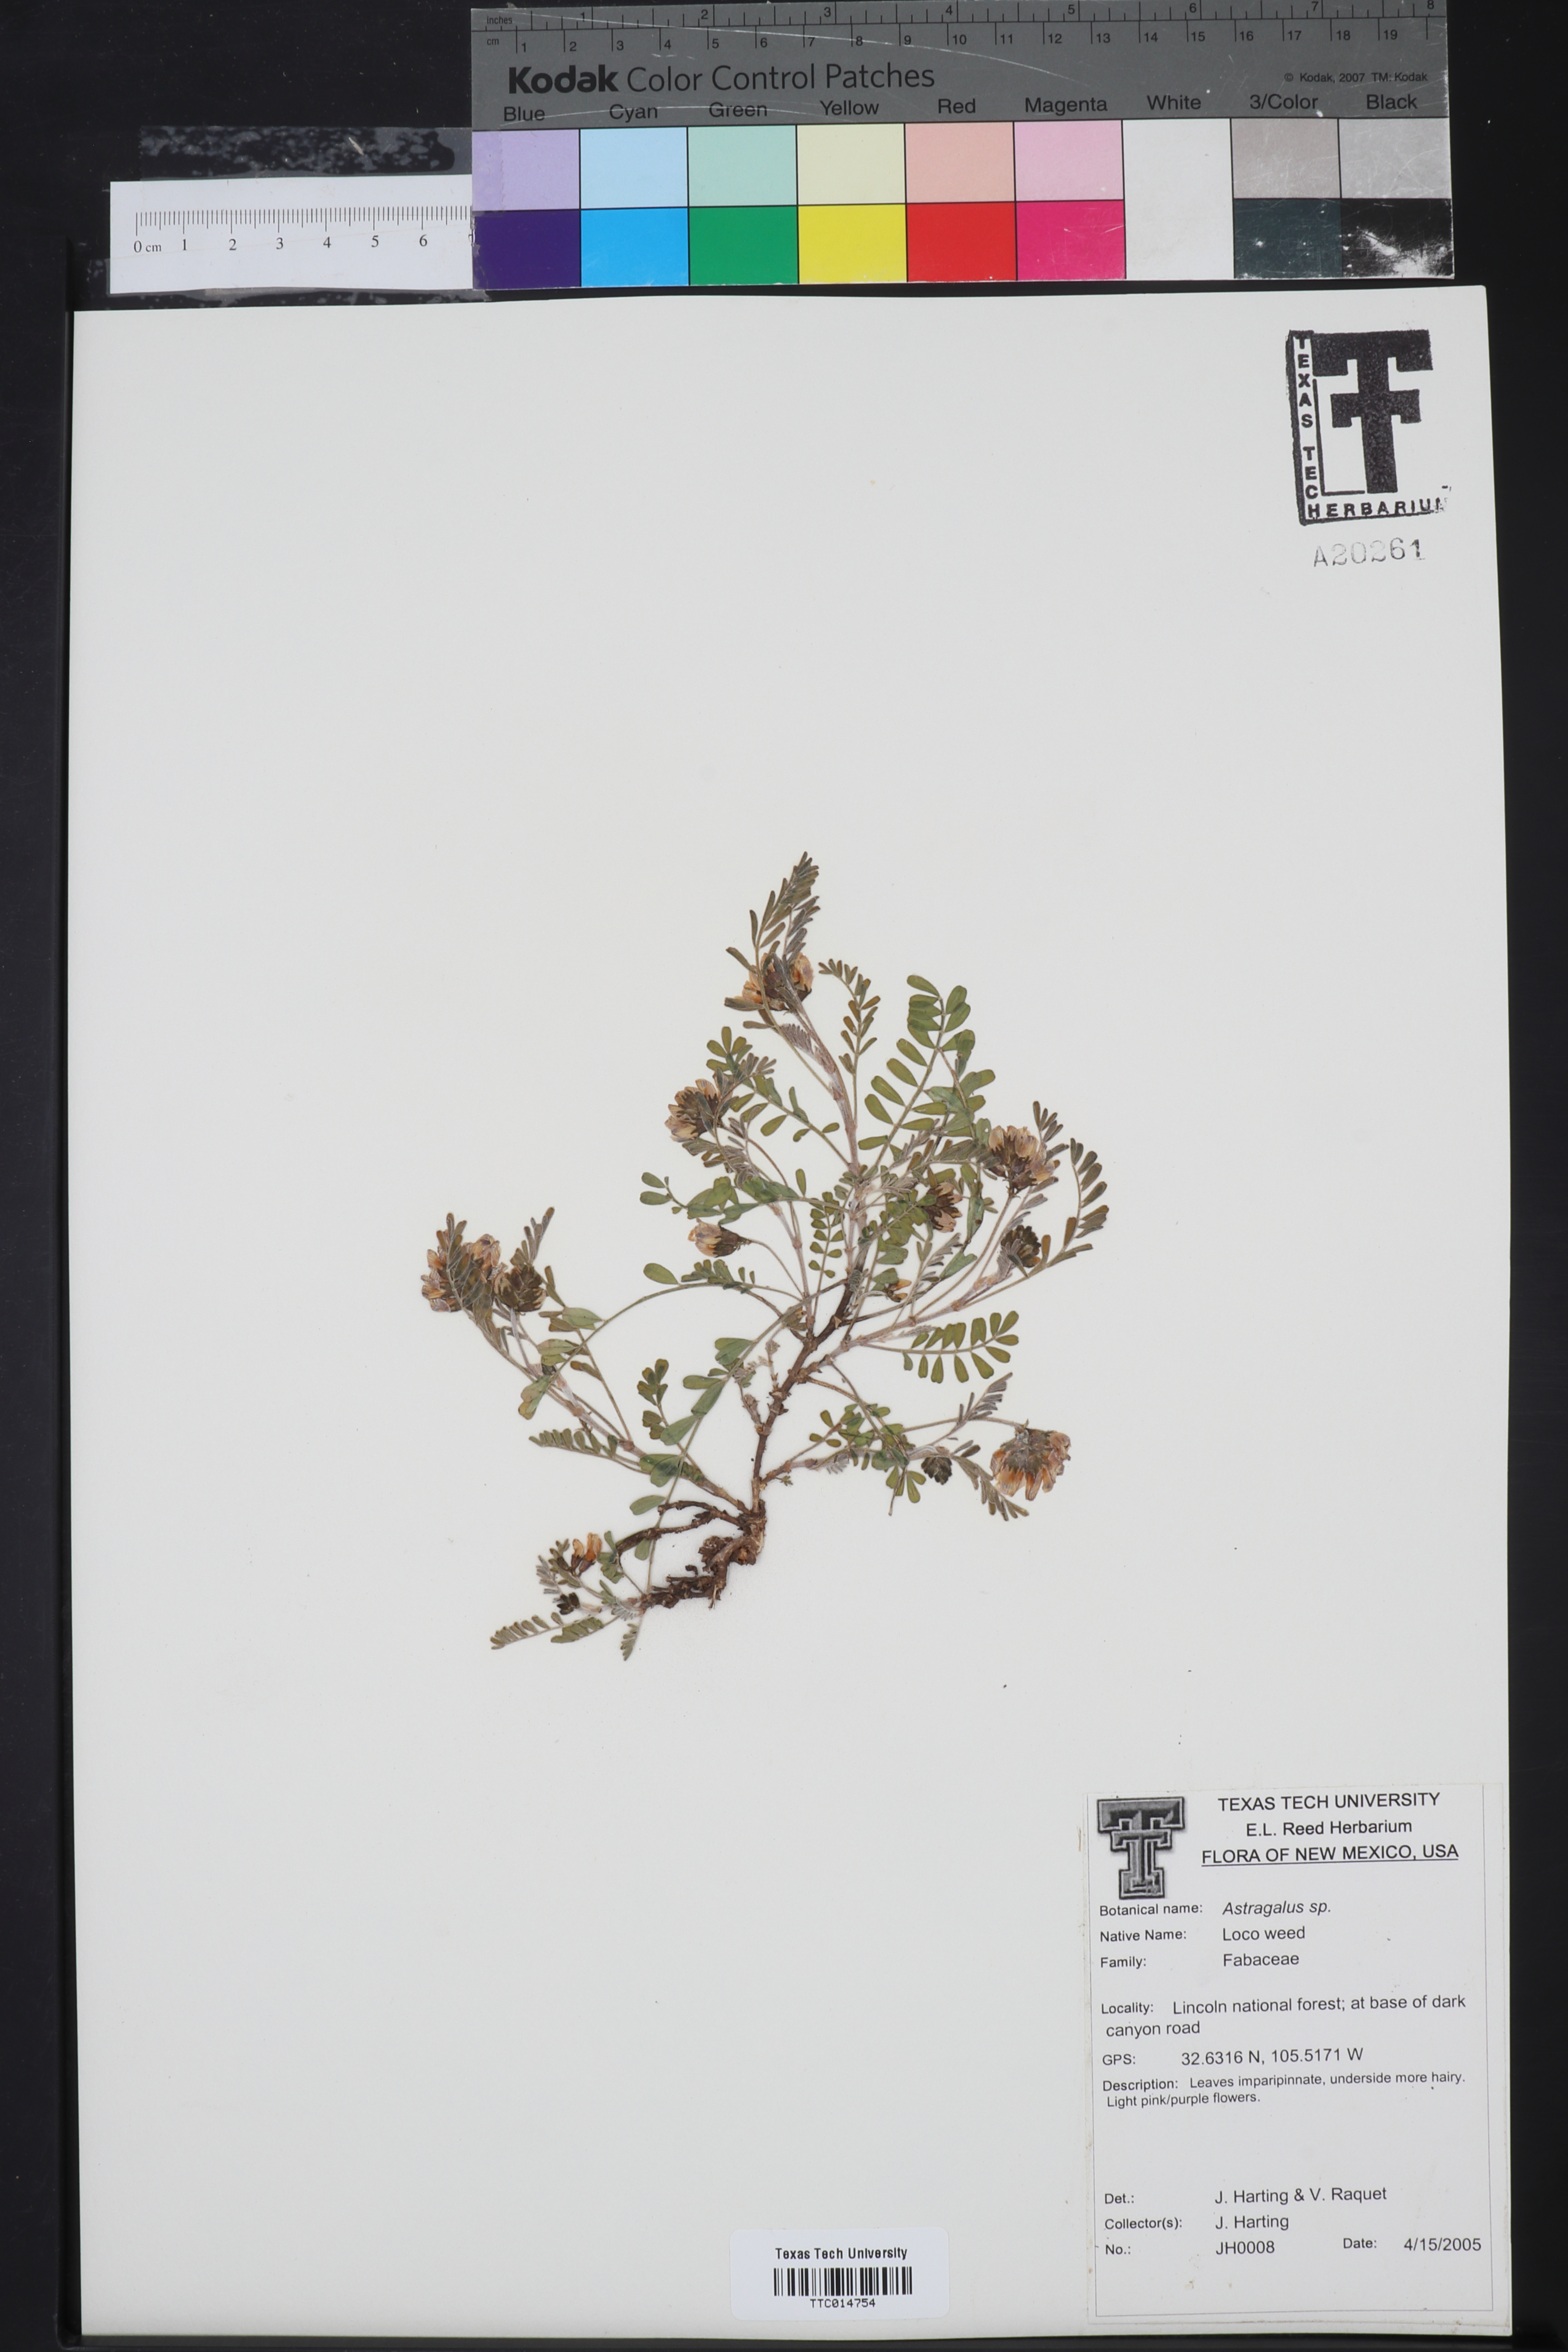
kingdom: Plantae
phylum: Tracheophyta
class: Magnoliopsida
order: Fabales
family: Fabaceae
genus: Astragalus
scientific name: Astragalus
